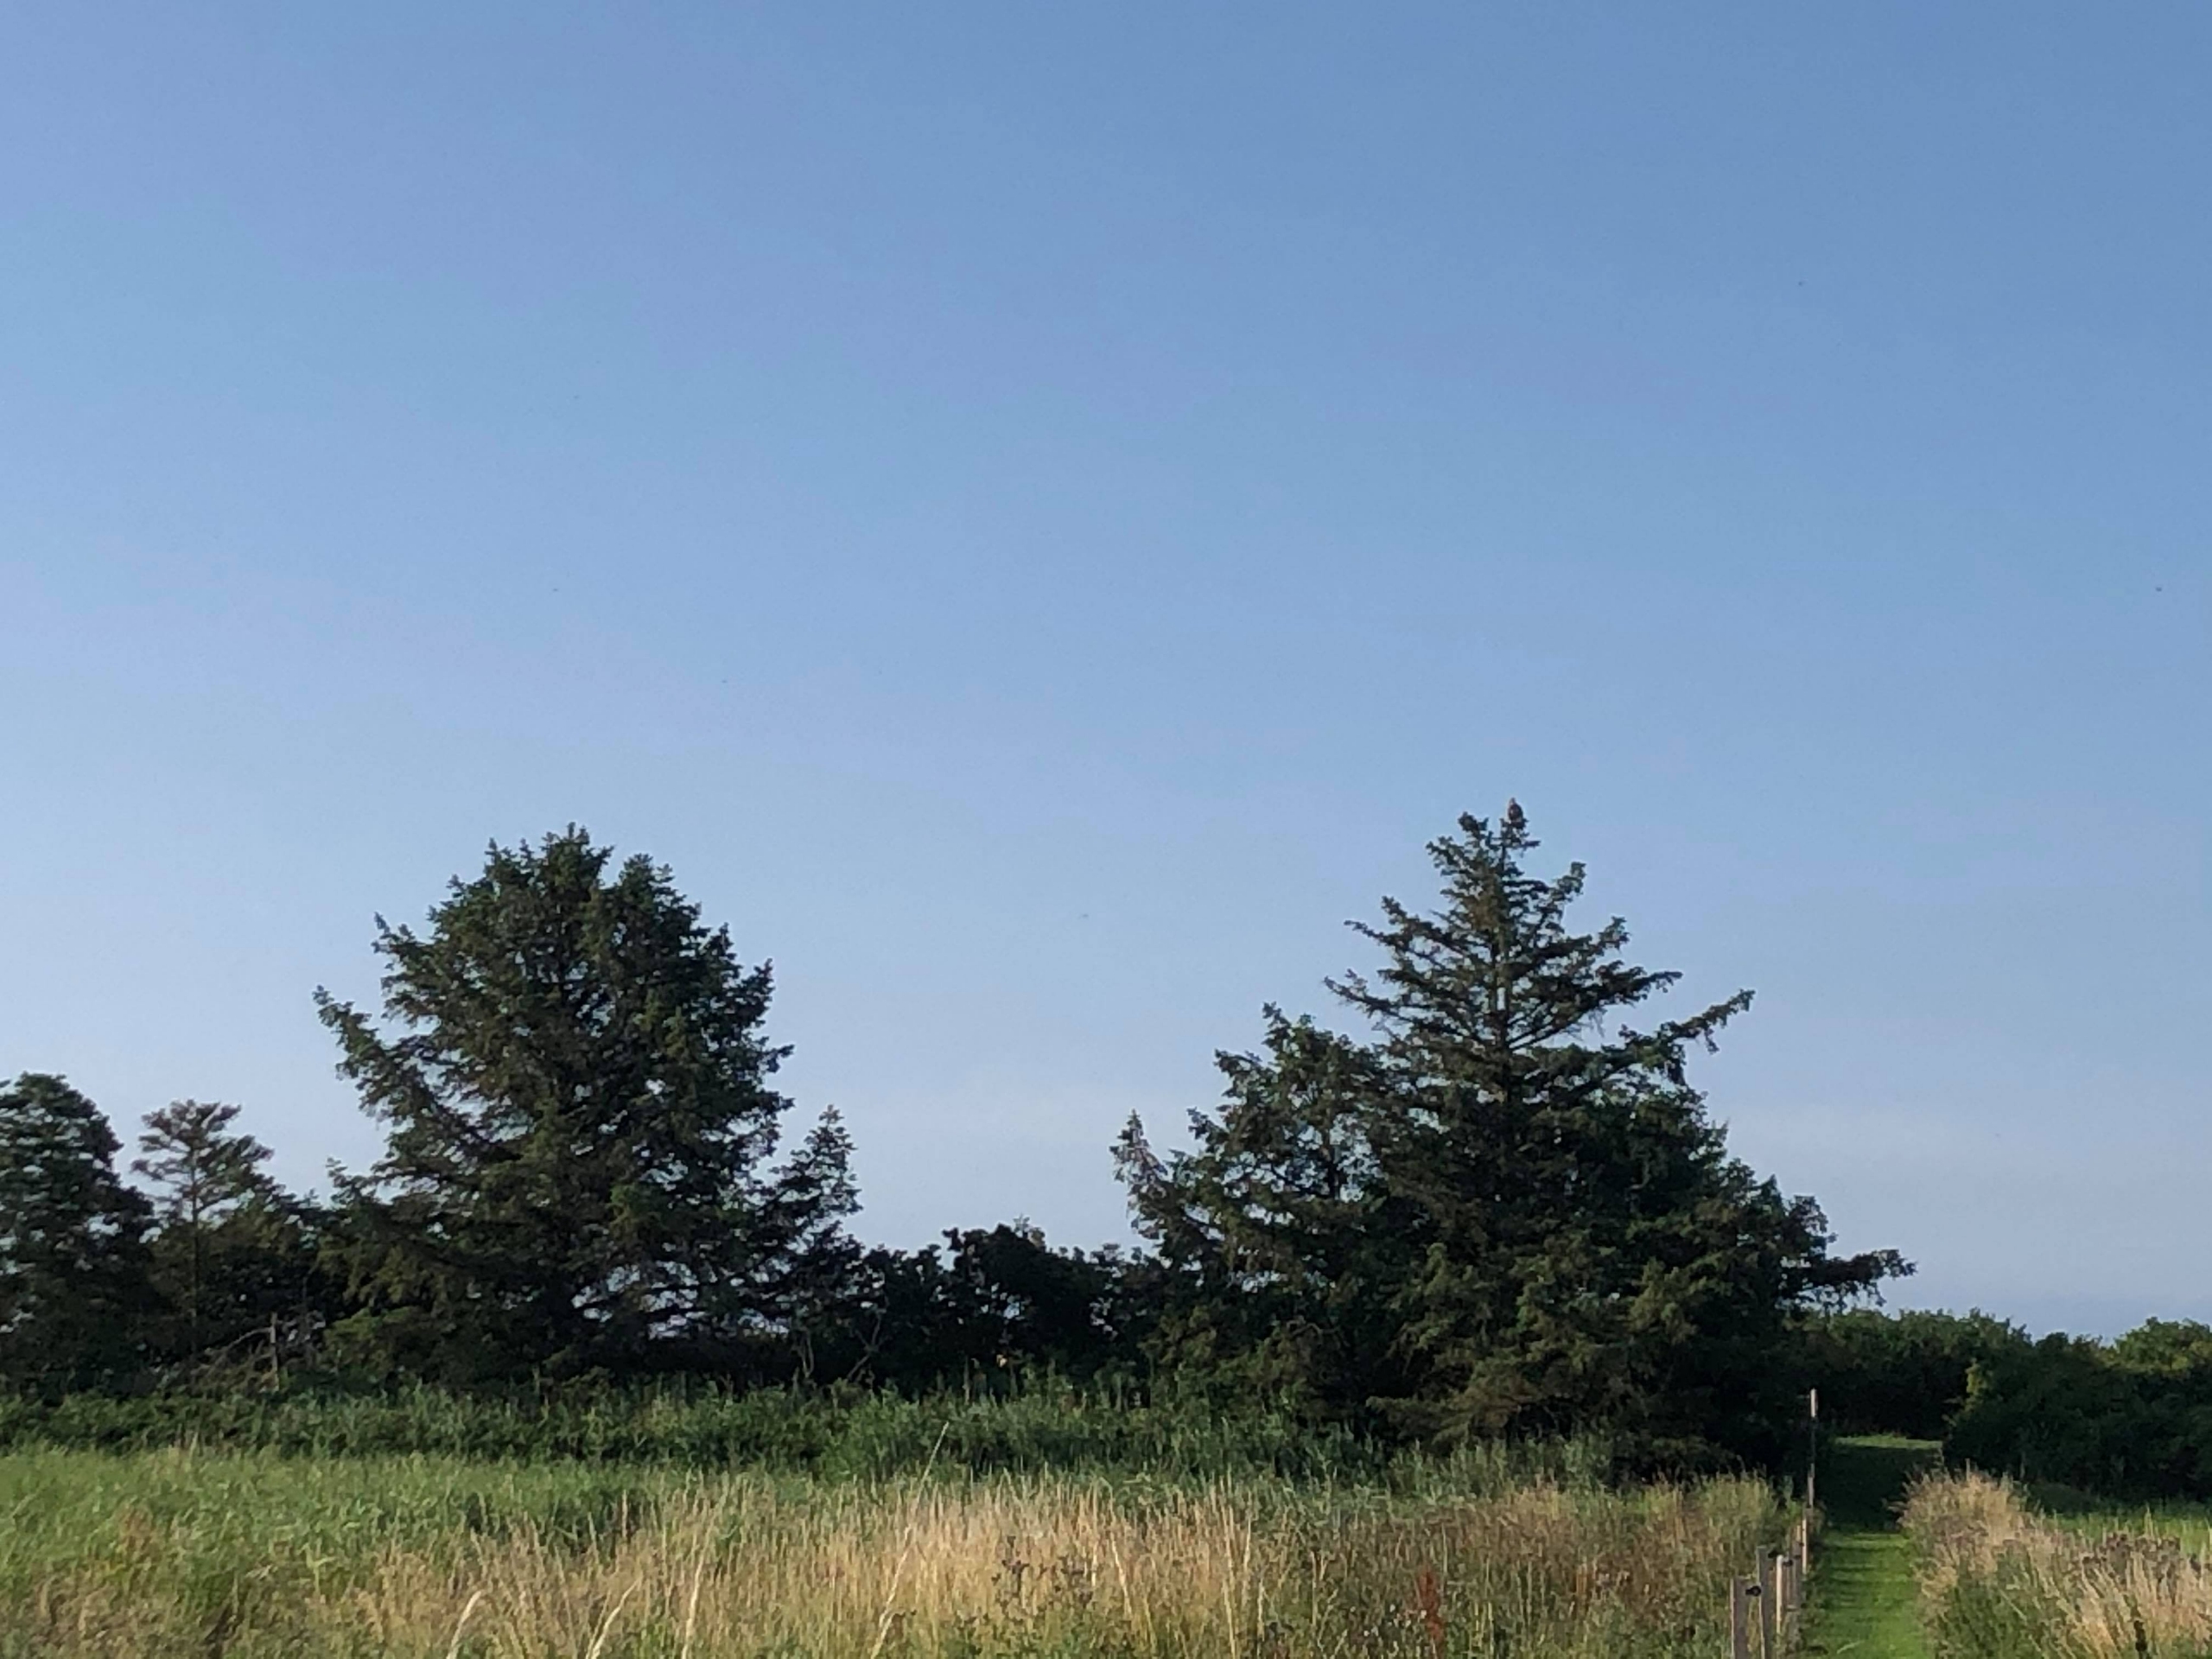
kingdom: Animalia
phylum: Chordata
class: Aves
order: Accipitriformes
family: Accipitridae
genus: Haliaeetus
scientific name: Haliaeetus albicilla
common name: Havørn
